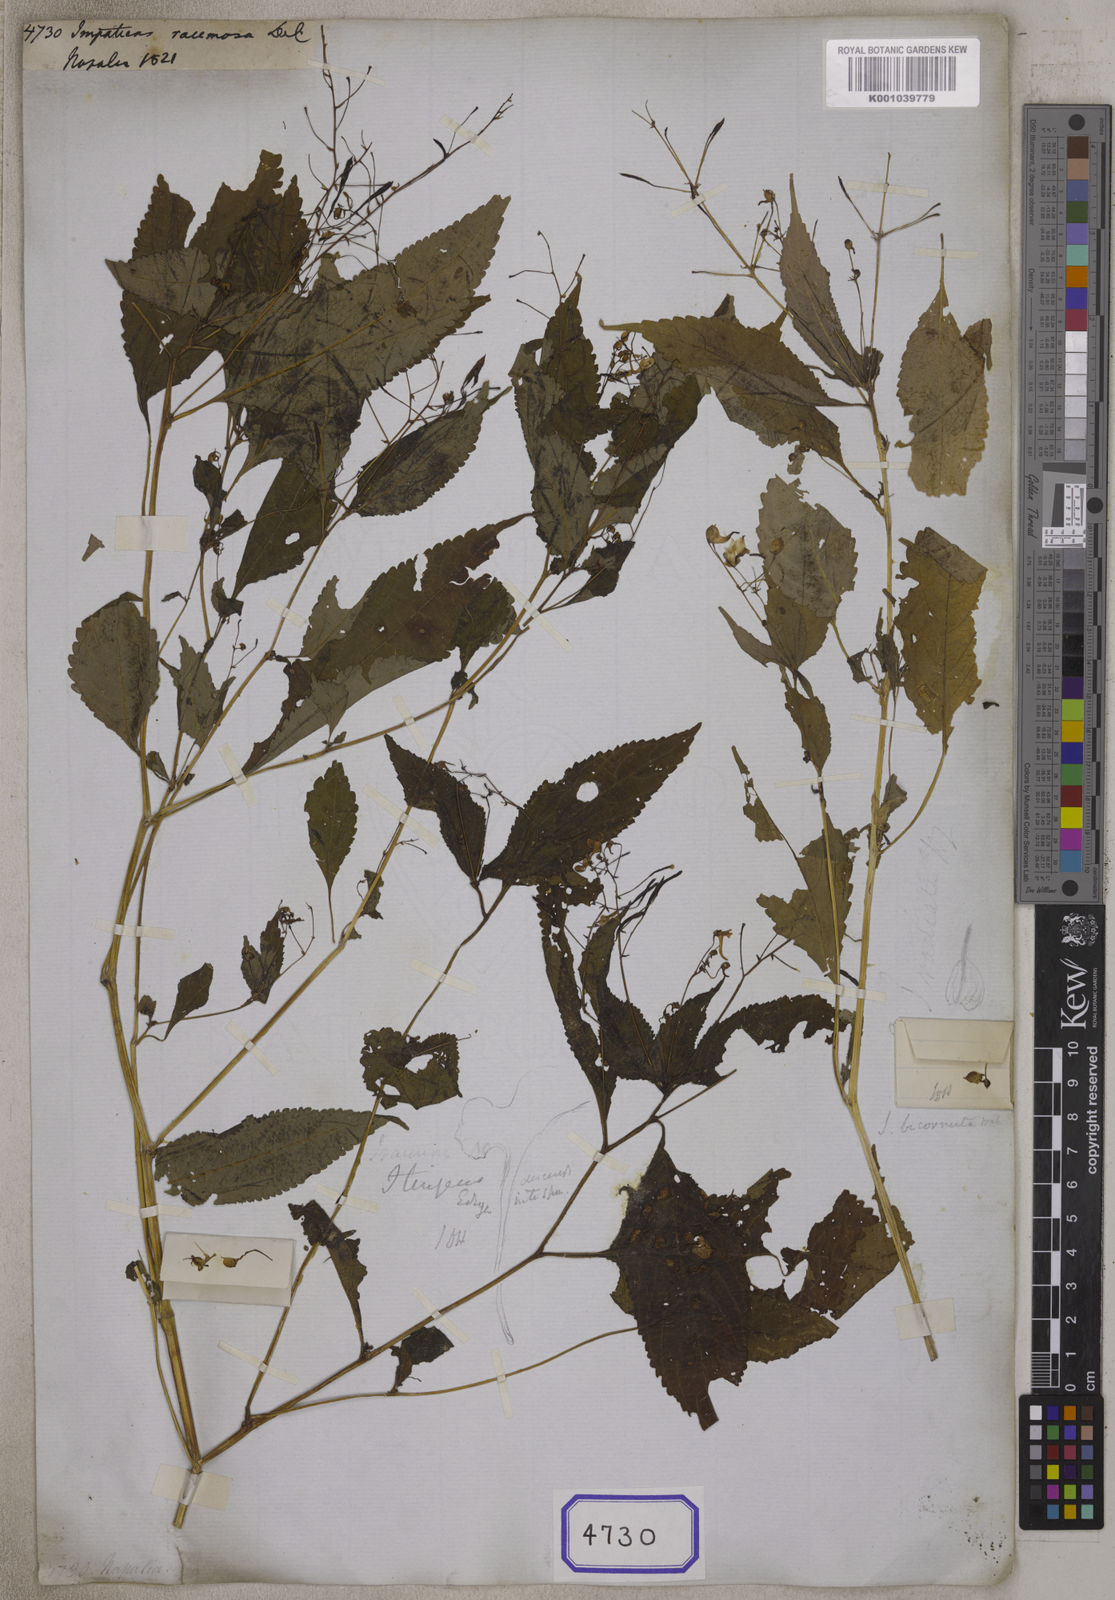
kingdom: Plantae
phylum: Tracheophyta
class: Magnoliopsida
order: Ericales
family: Balsaminaceae
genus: Impatiens
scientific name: Impatiens
